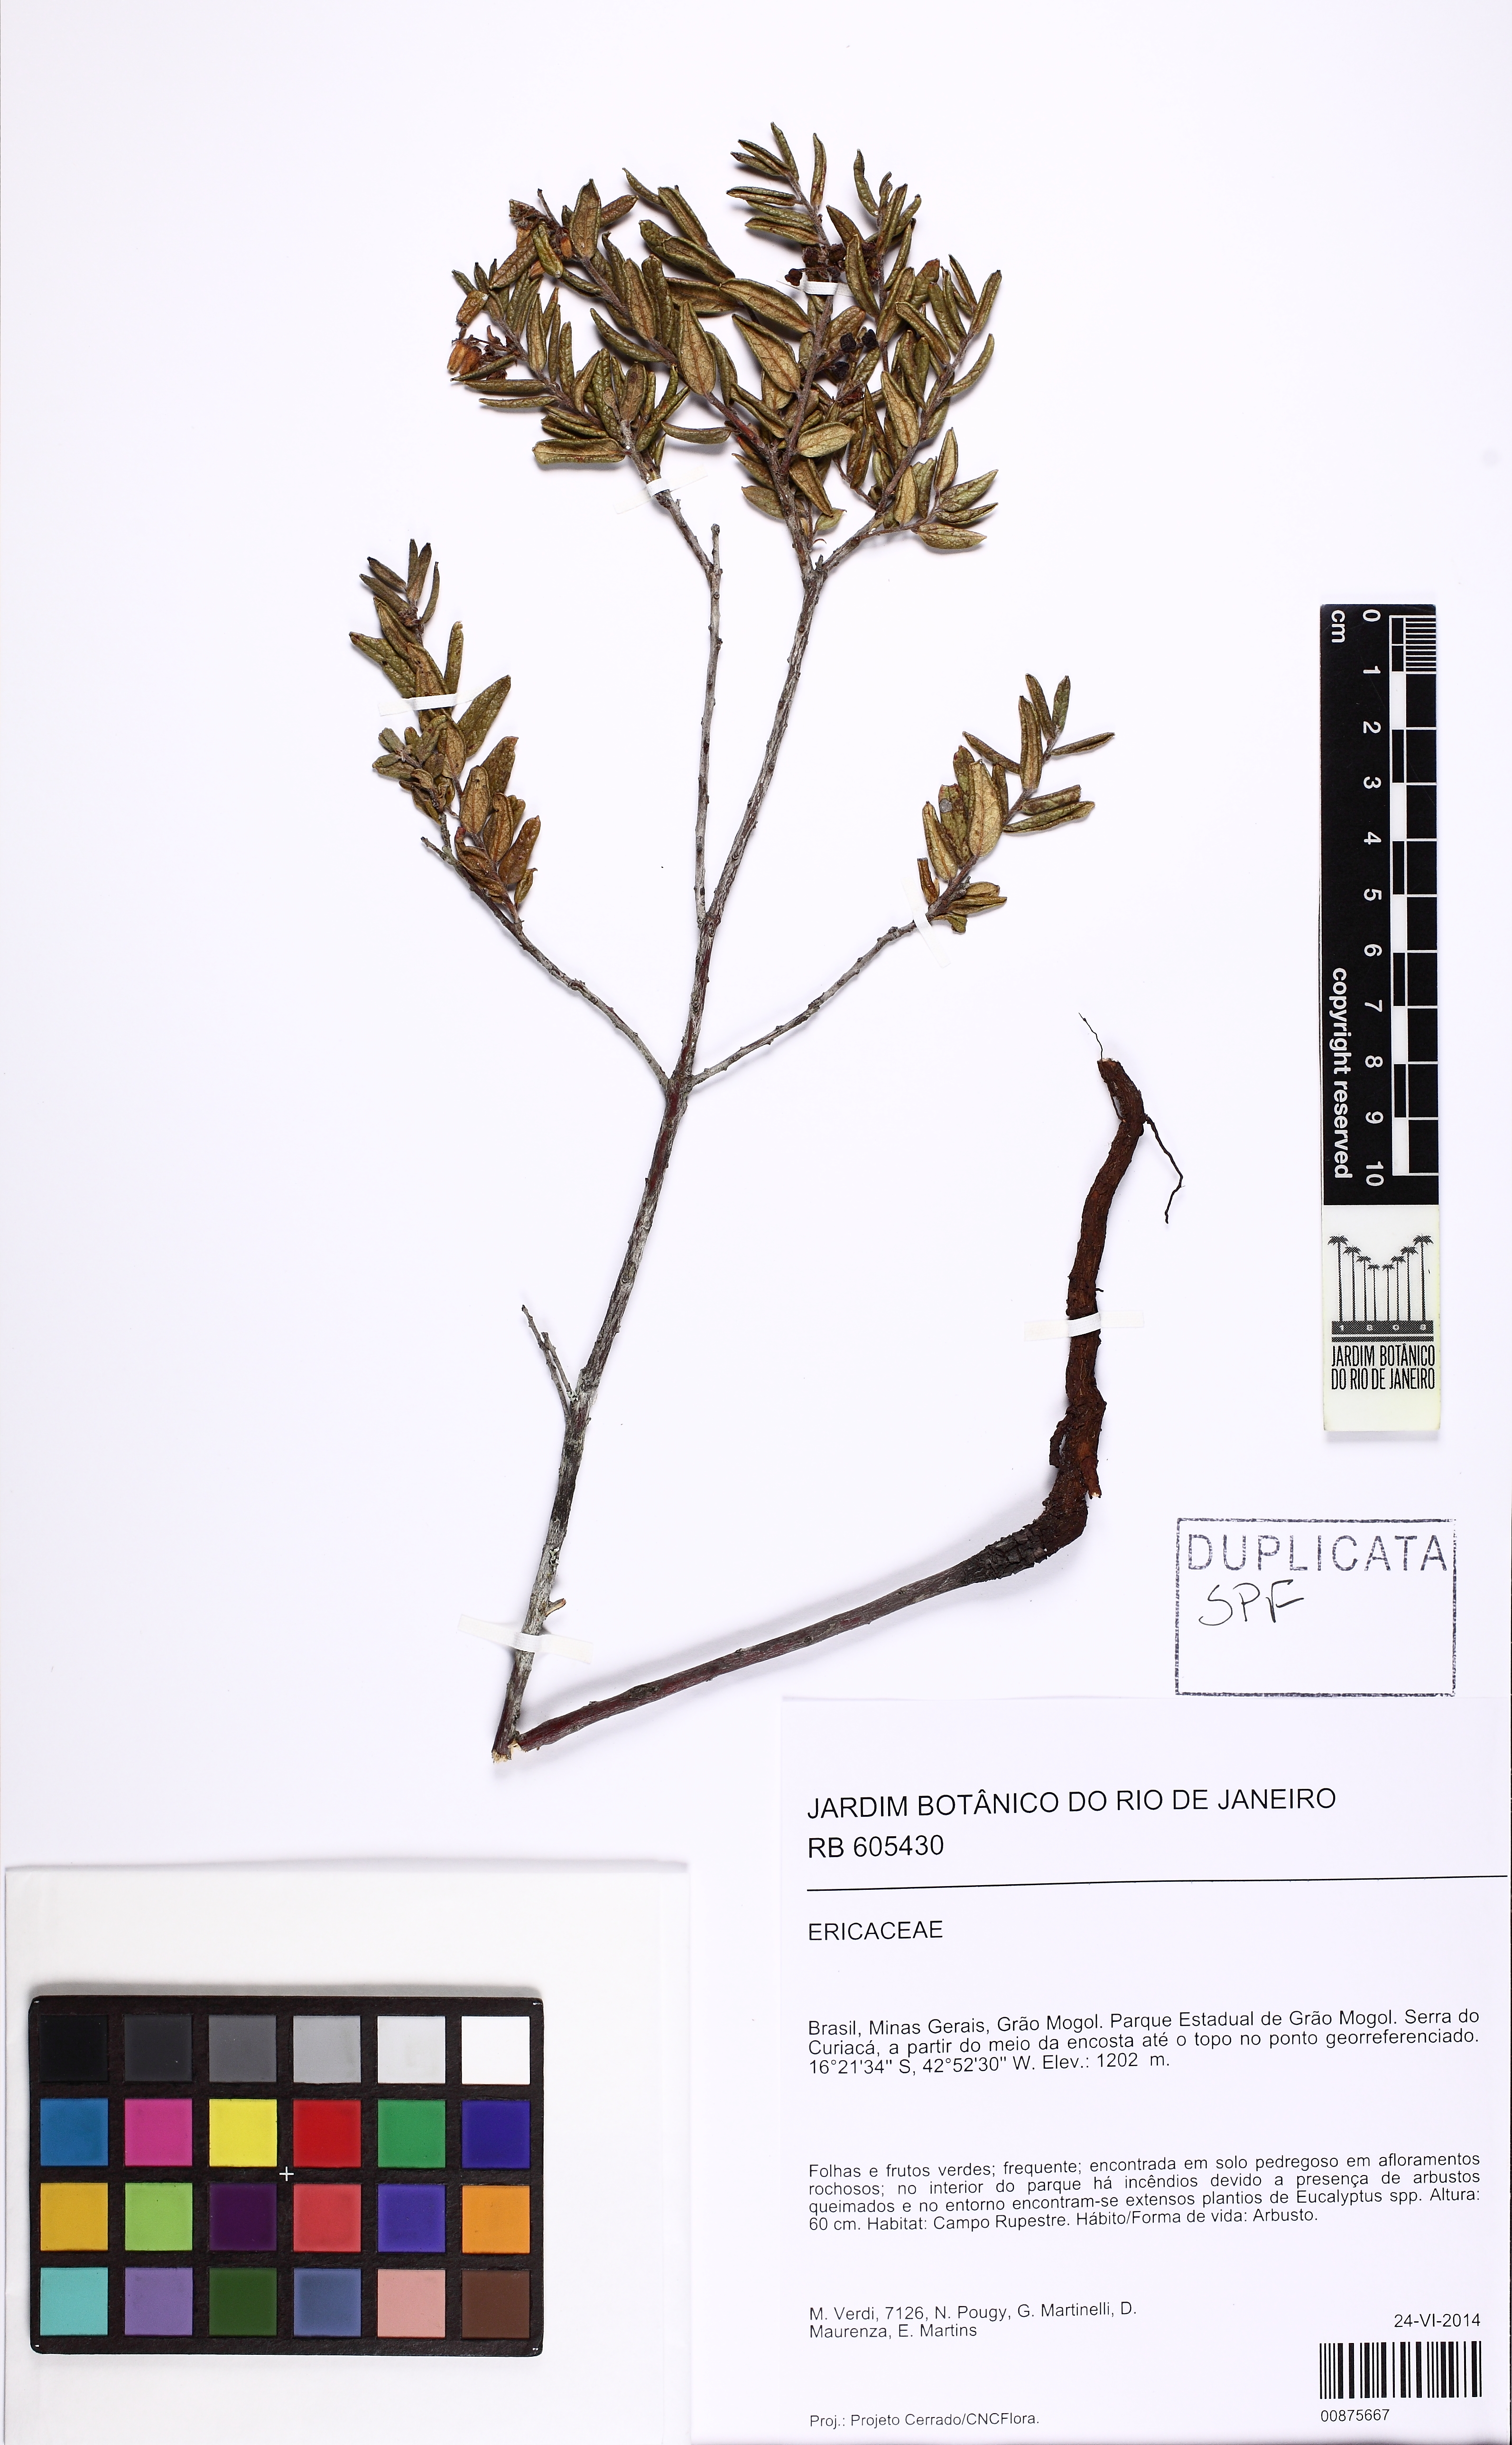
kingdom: Plantae
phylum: Tracheophyta
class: Magnoliopsida
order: Ericales
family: Ericaceae
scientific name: Ericaceae
